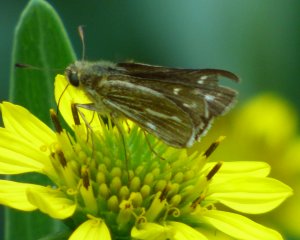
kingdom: Animalia
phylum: Arthropoda
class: Insecta
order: Lepidoptera
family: Hesperiidae
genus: Panoquina
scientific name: Panoquina panoquin
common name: Salt Marsh Skipper
